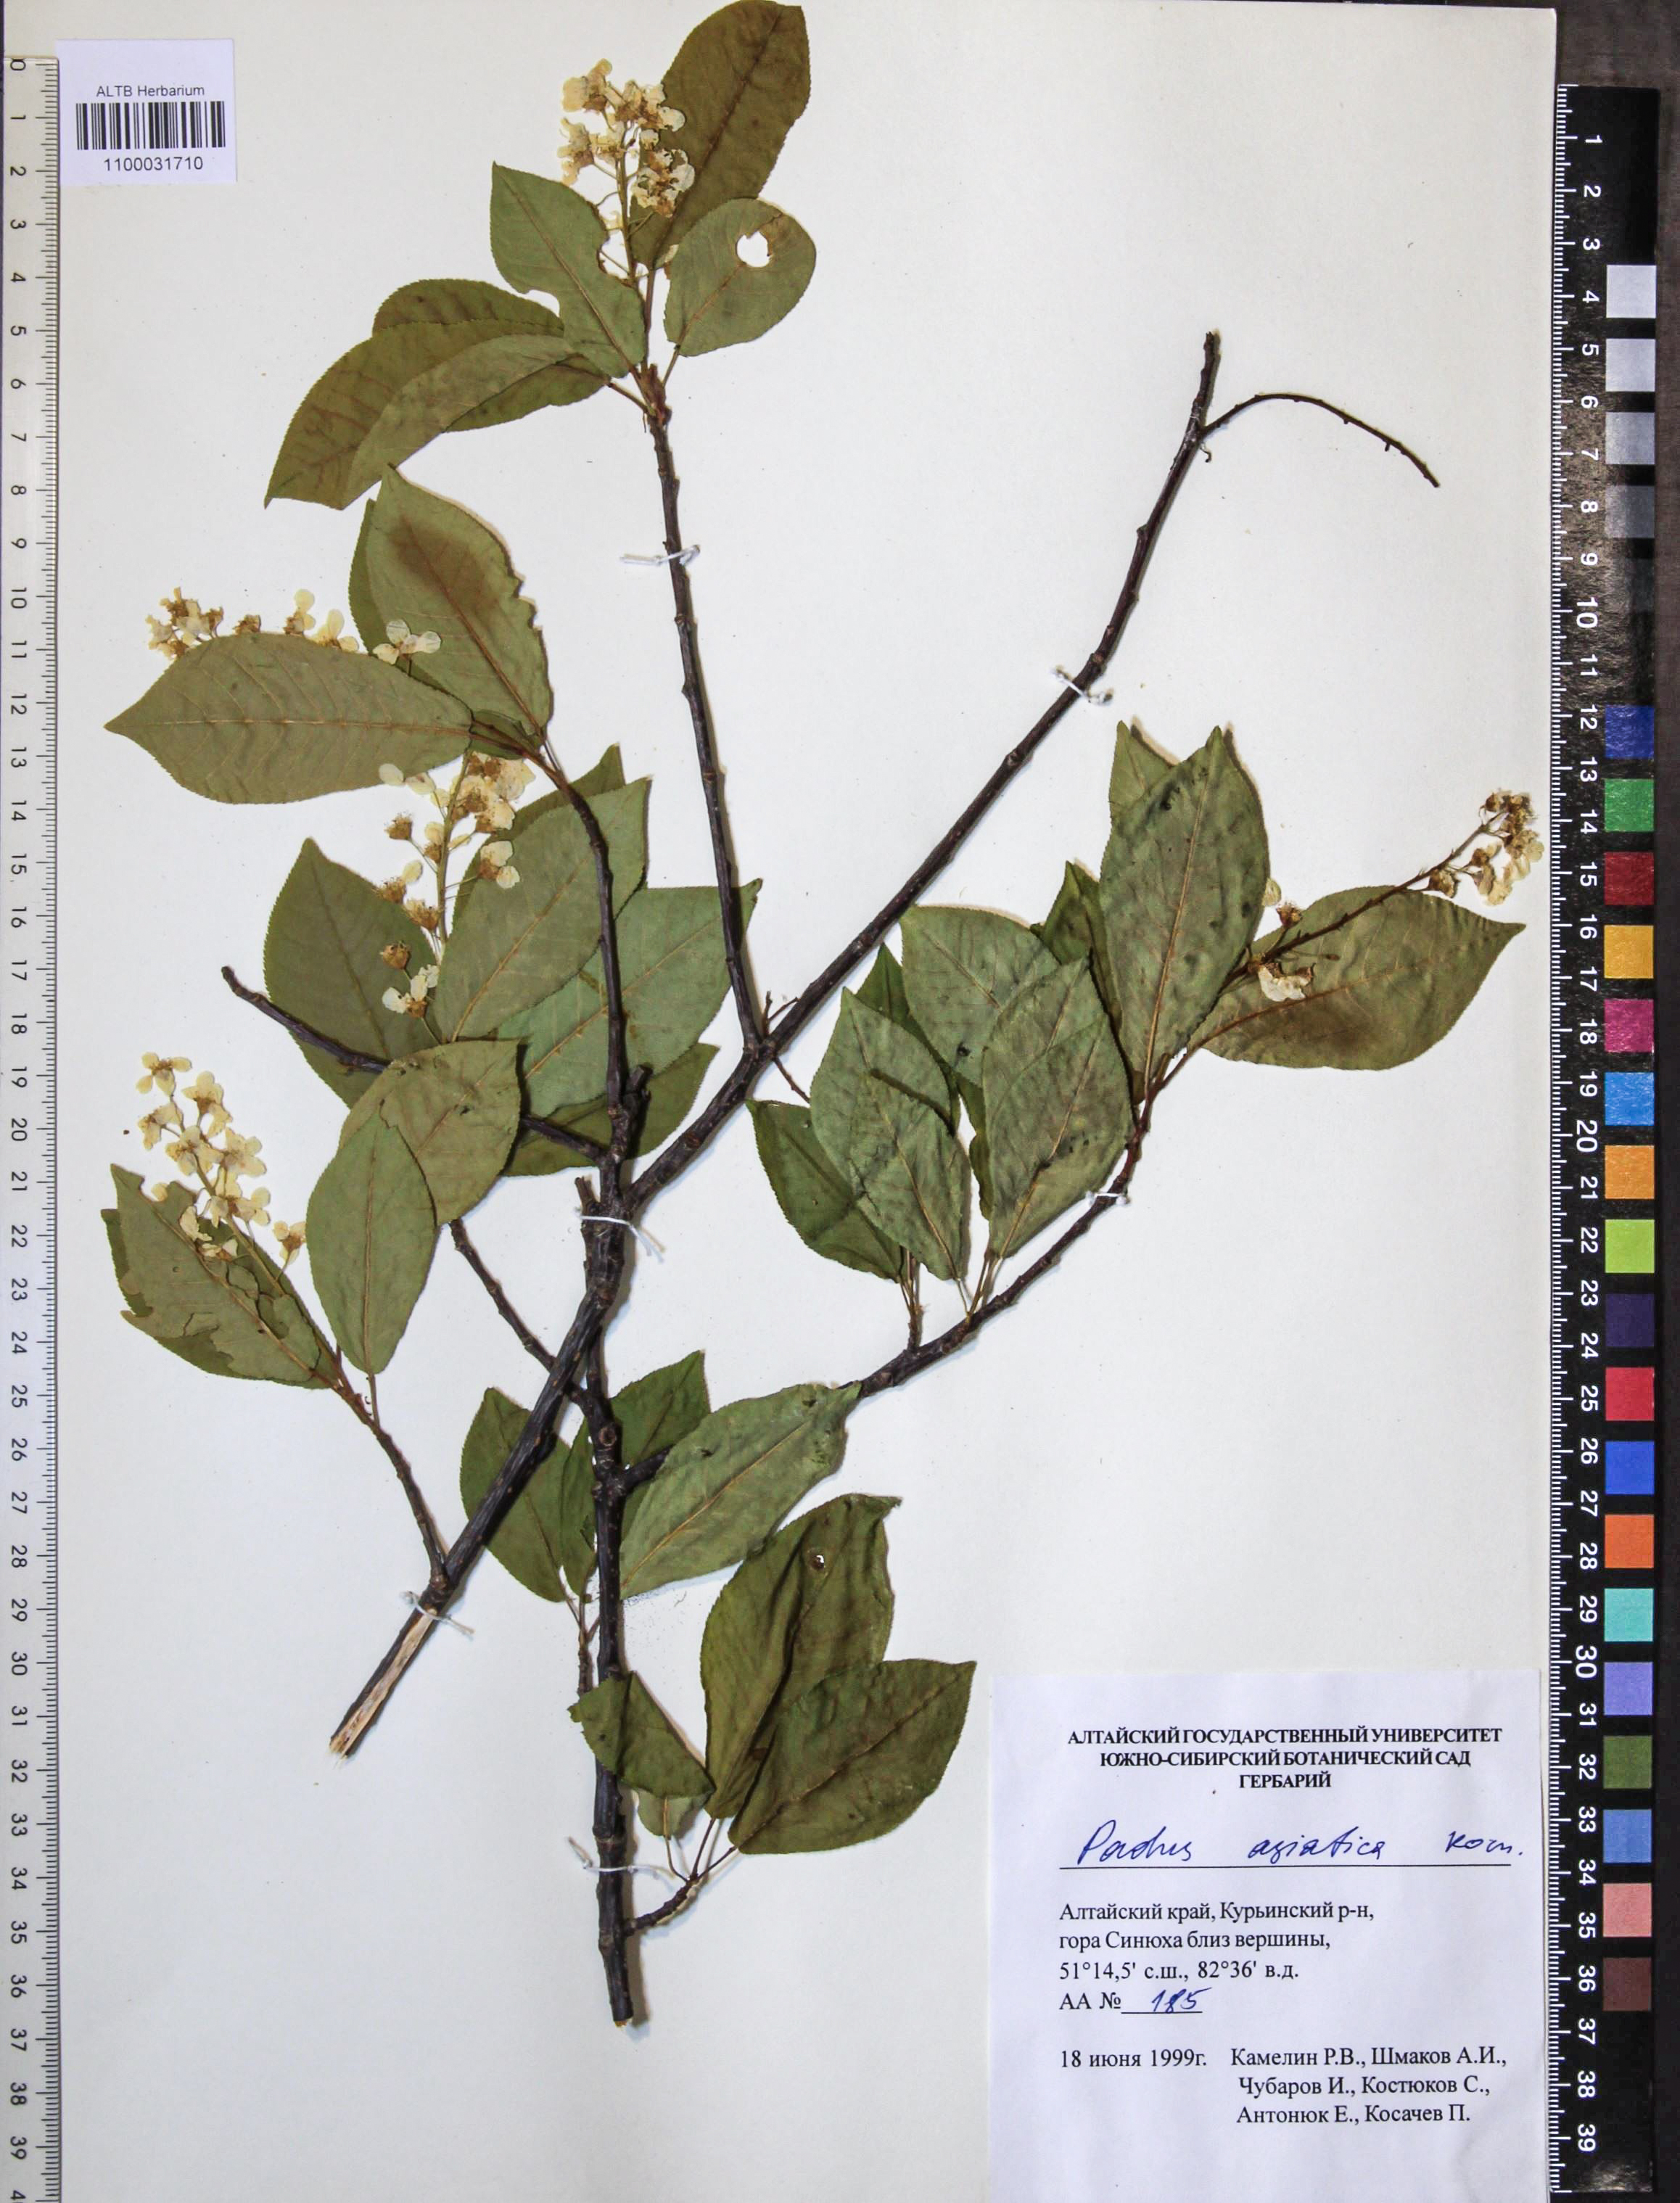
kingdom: Plantae
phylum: Tracheophyta
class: Magnoliopsida
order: Rosales
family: Rosaceae
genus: Prunus
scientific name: Prunus padus
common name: Bird cherry
